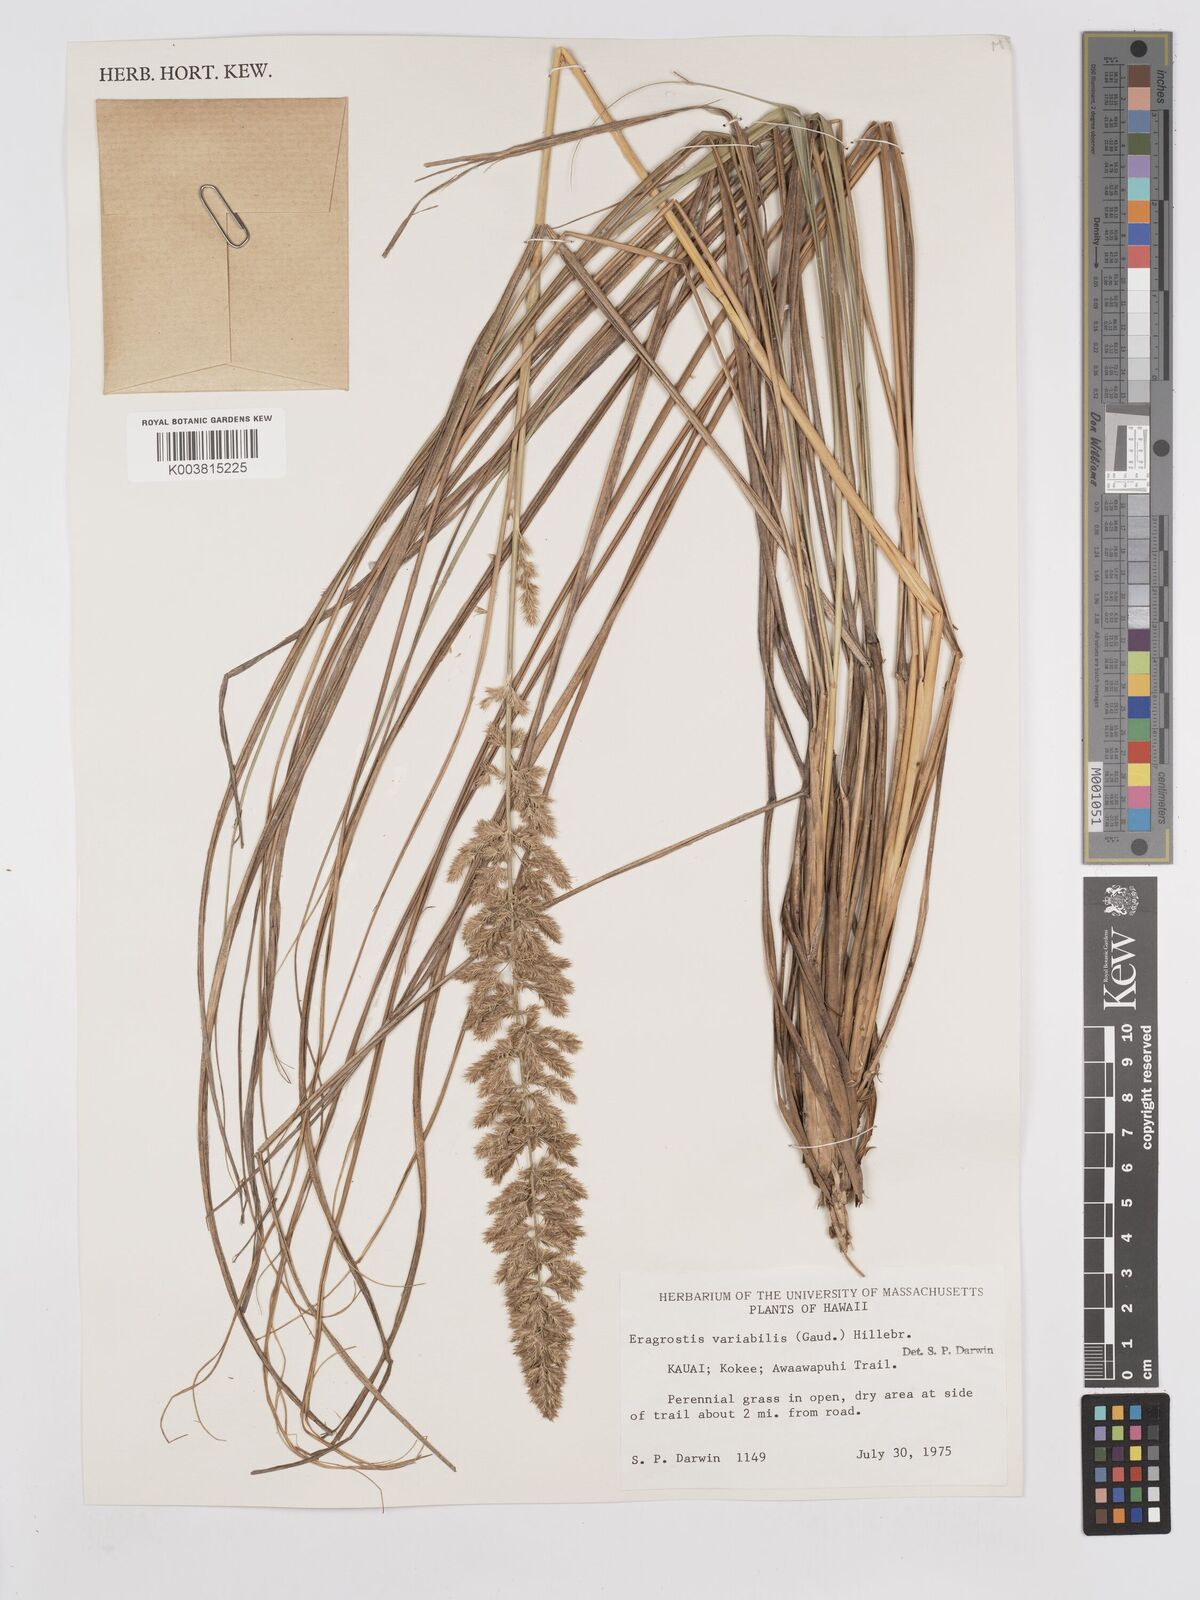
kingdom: Plantae
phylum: Tracheophyta
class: Liliopsida
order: Poales
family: Poaceae
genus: Eragrostis
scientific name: Eragrostis variabilis
